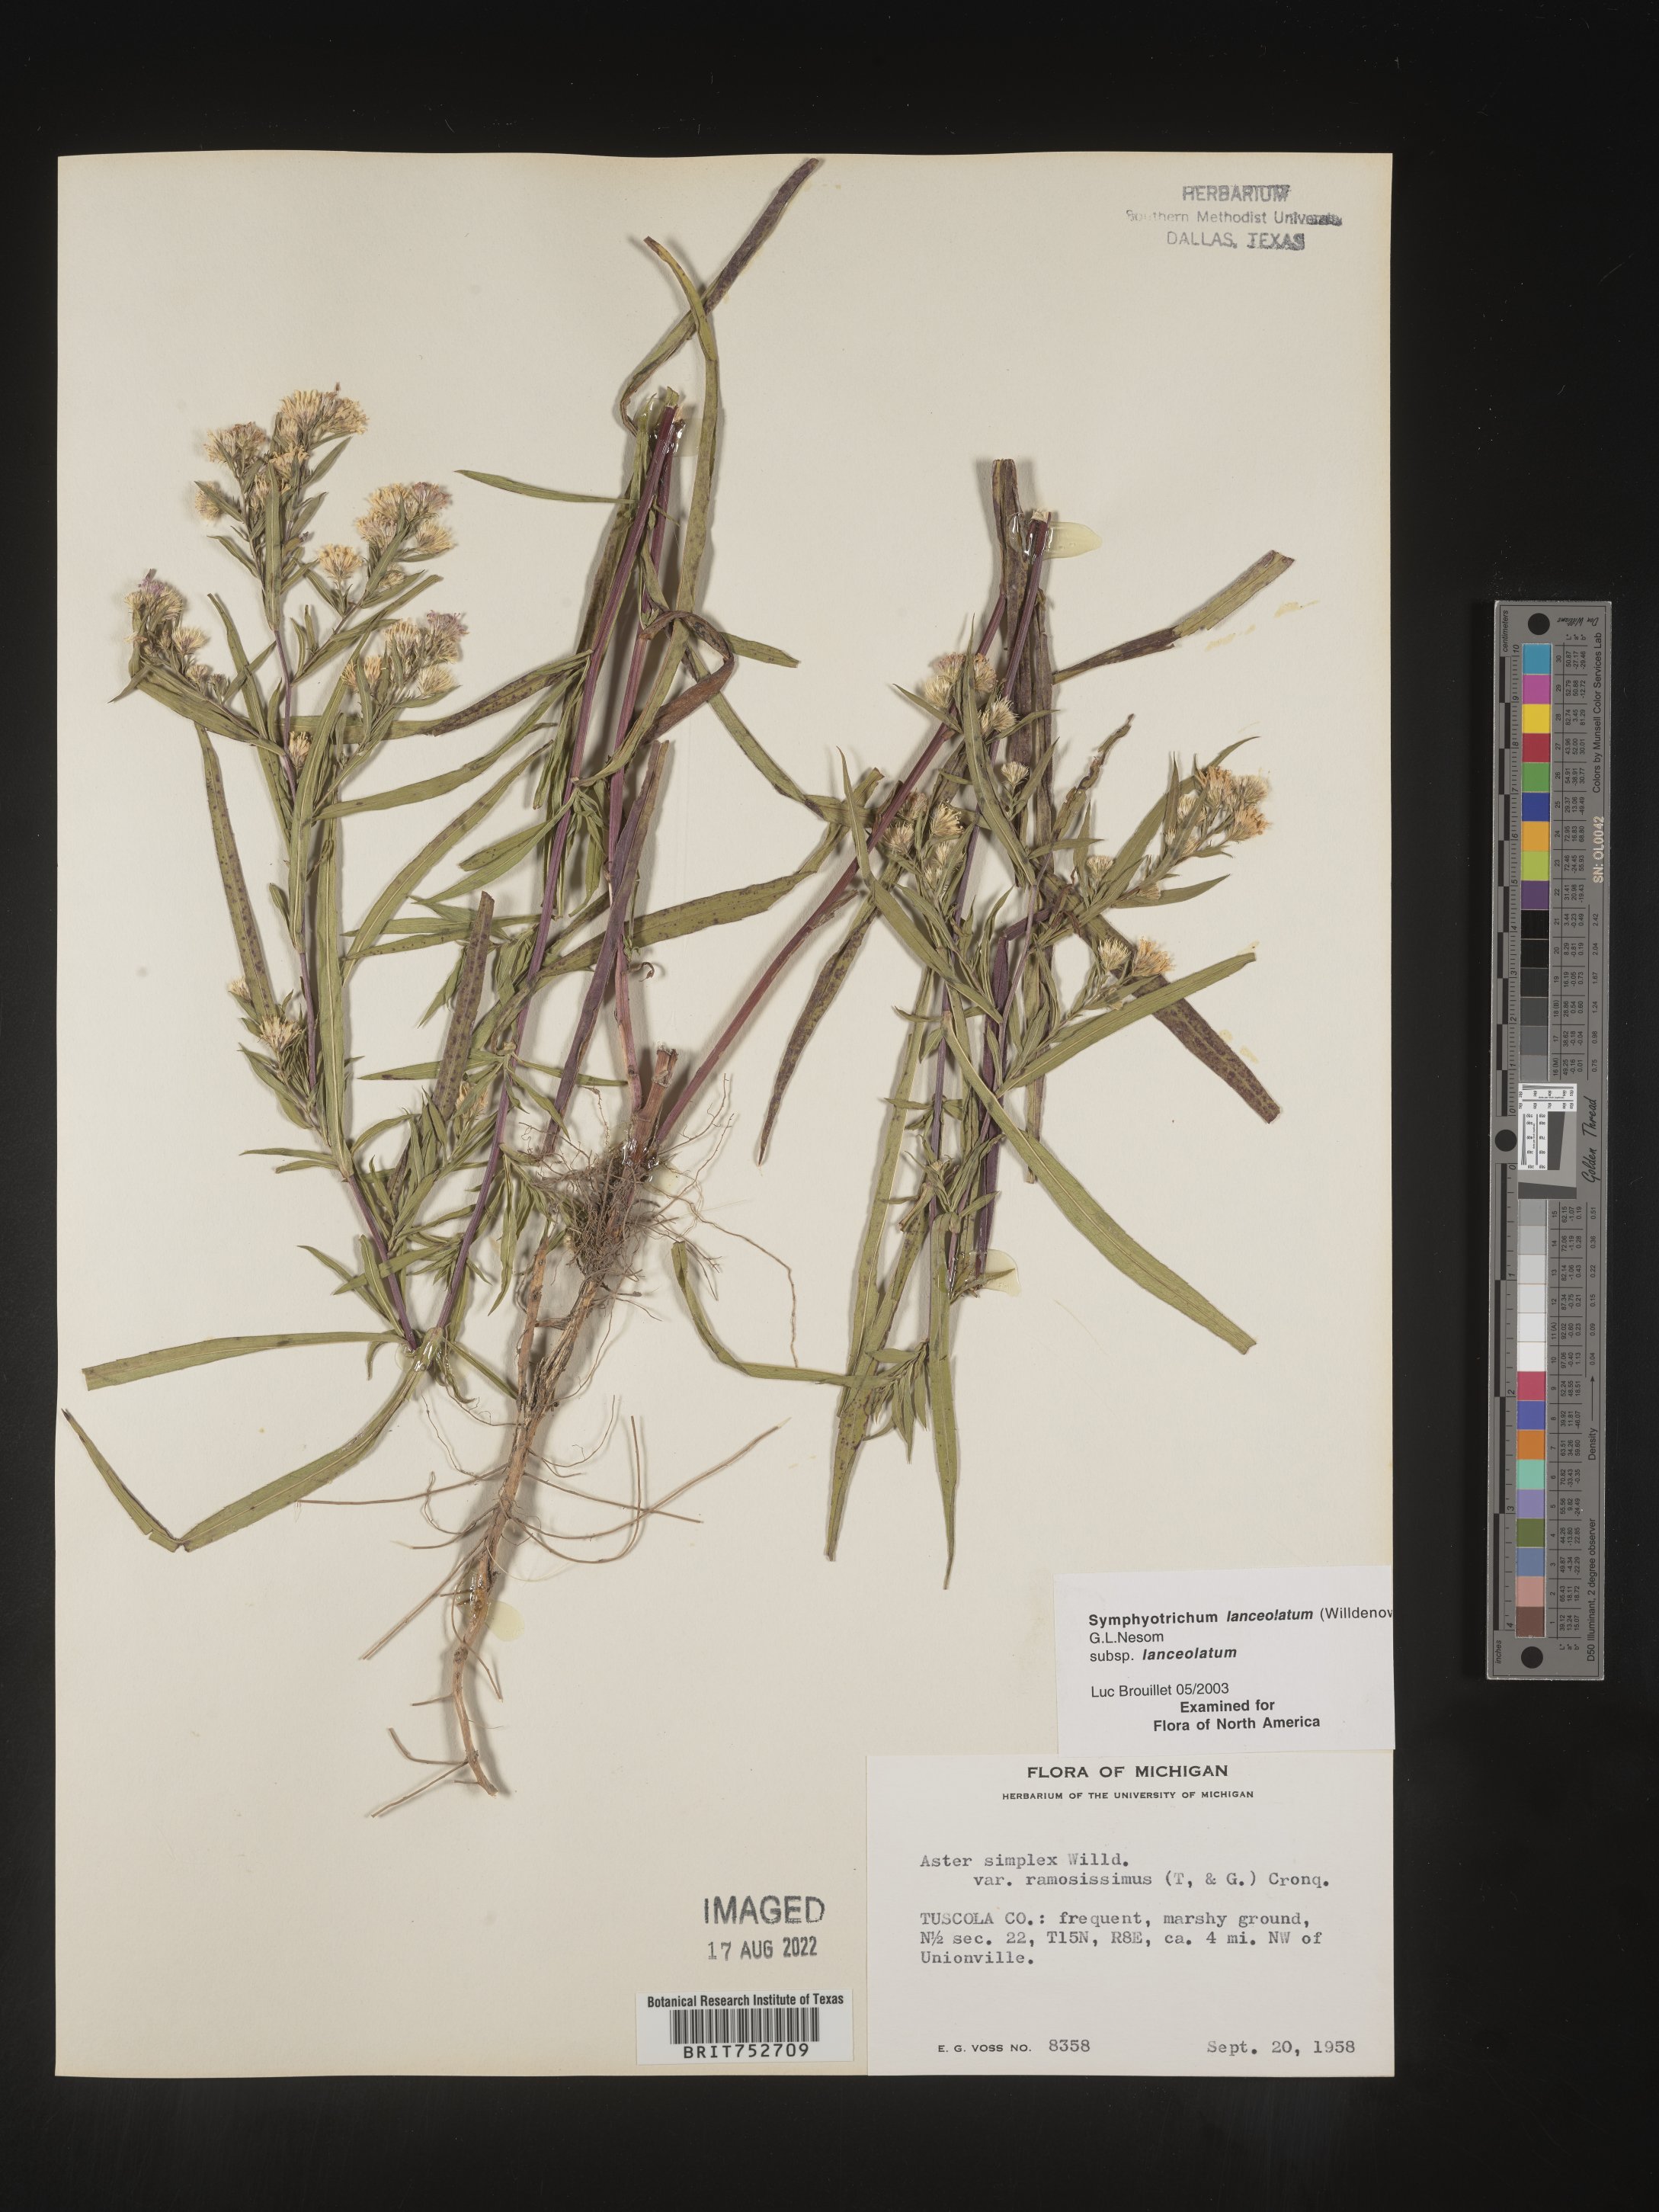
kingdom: Plantae
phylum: Tracheophyta
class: Magnoliopsida
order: Asterales
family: Asteraceae
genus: Symphyotrichum
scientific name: Symphyotrichum lanceolatum
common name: Panicled aster
